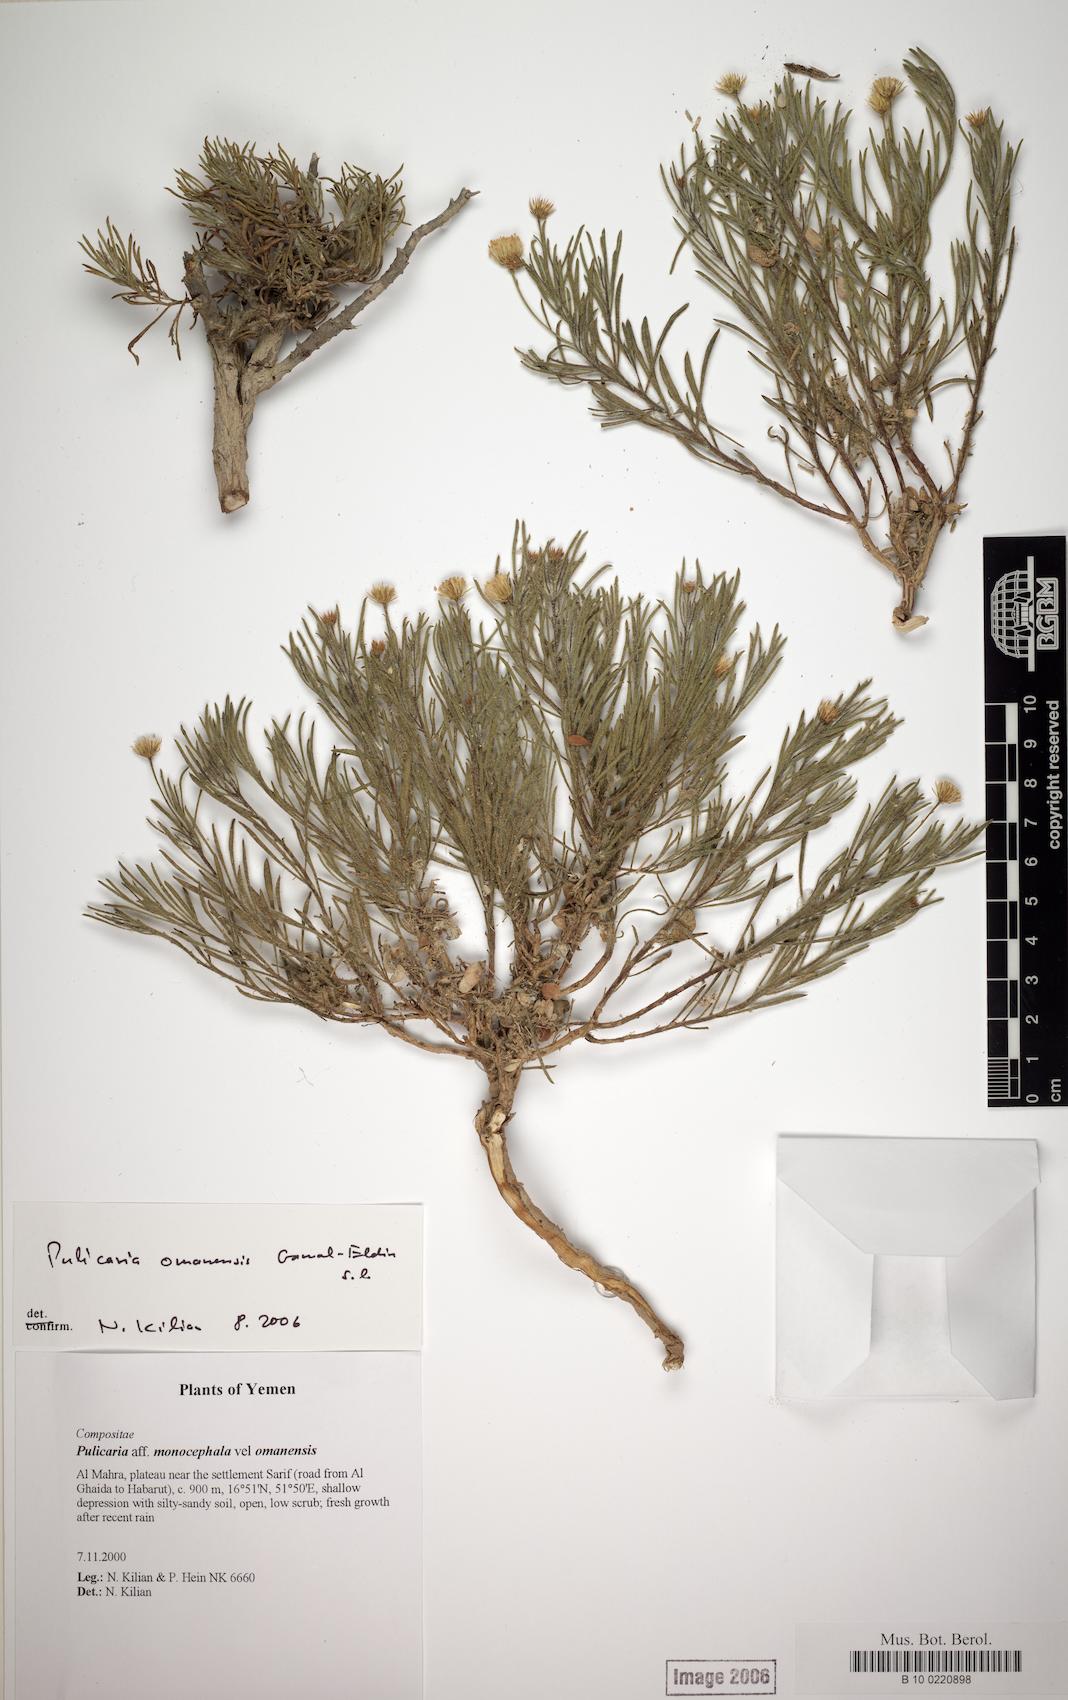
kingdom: Plantae
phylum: Tracheophyta
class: Magnoliopsida
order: Asterales
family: Asteraceae
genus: Pulicaria
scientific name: Pulicaria omanensis
